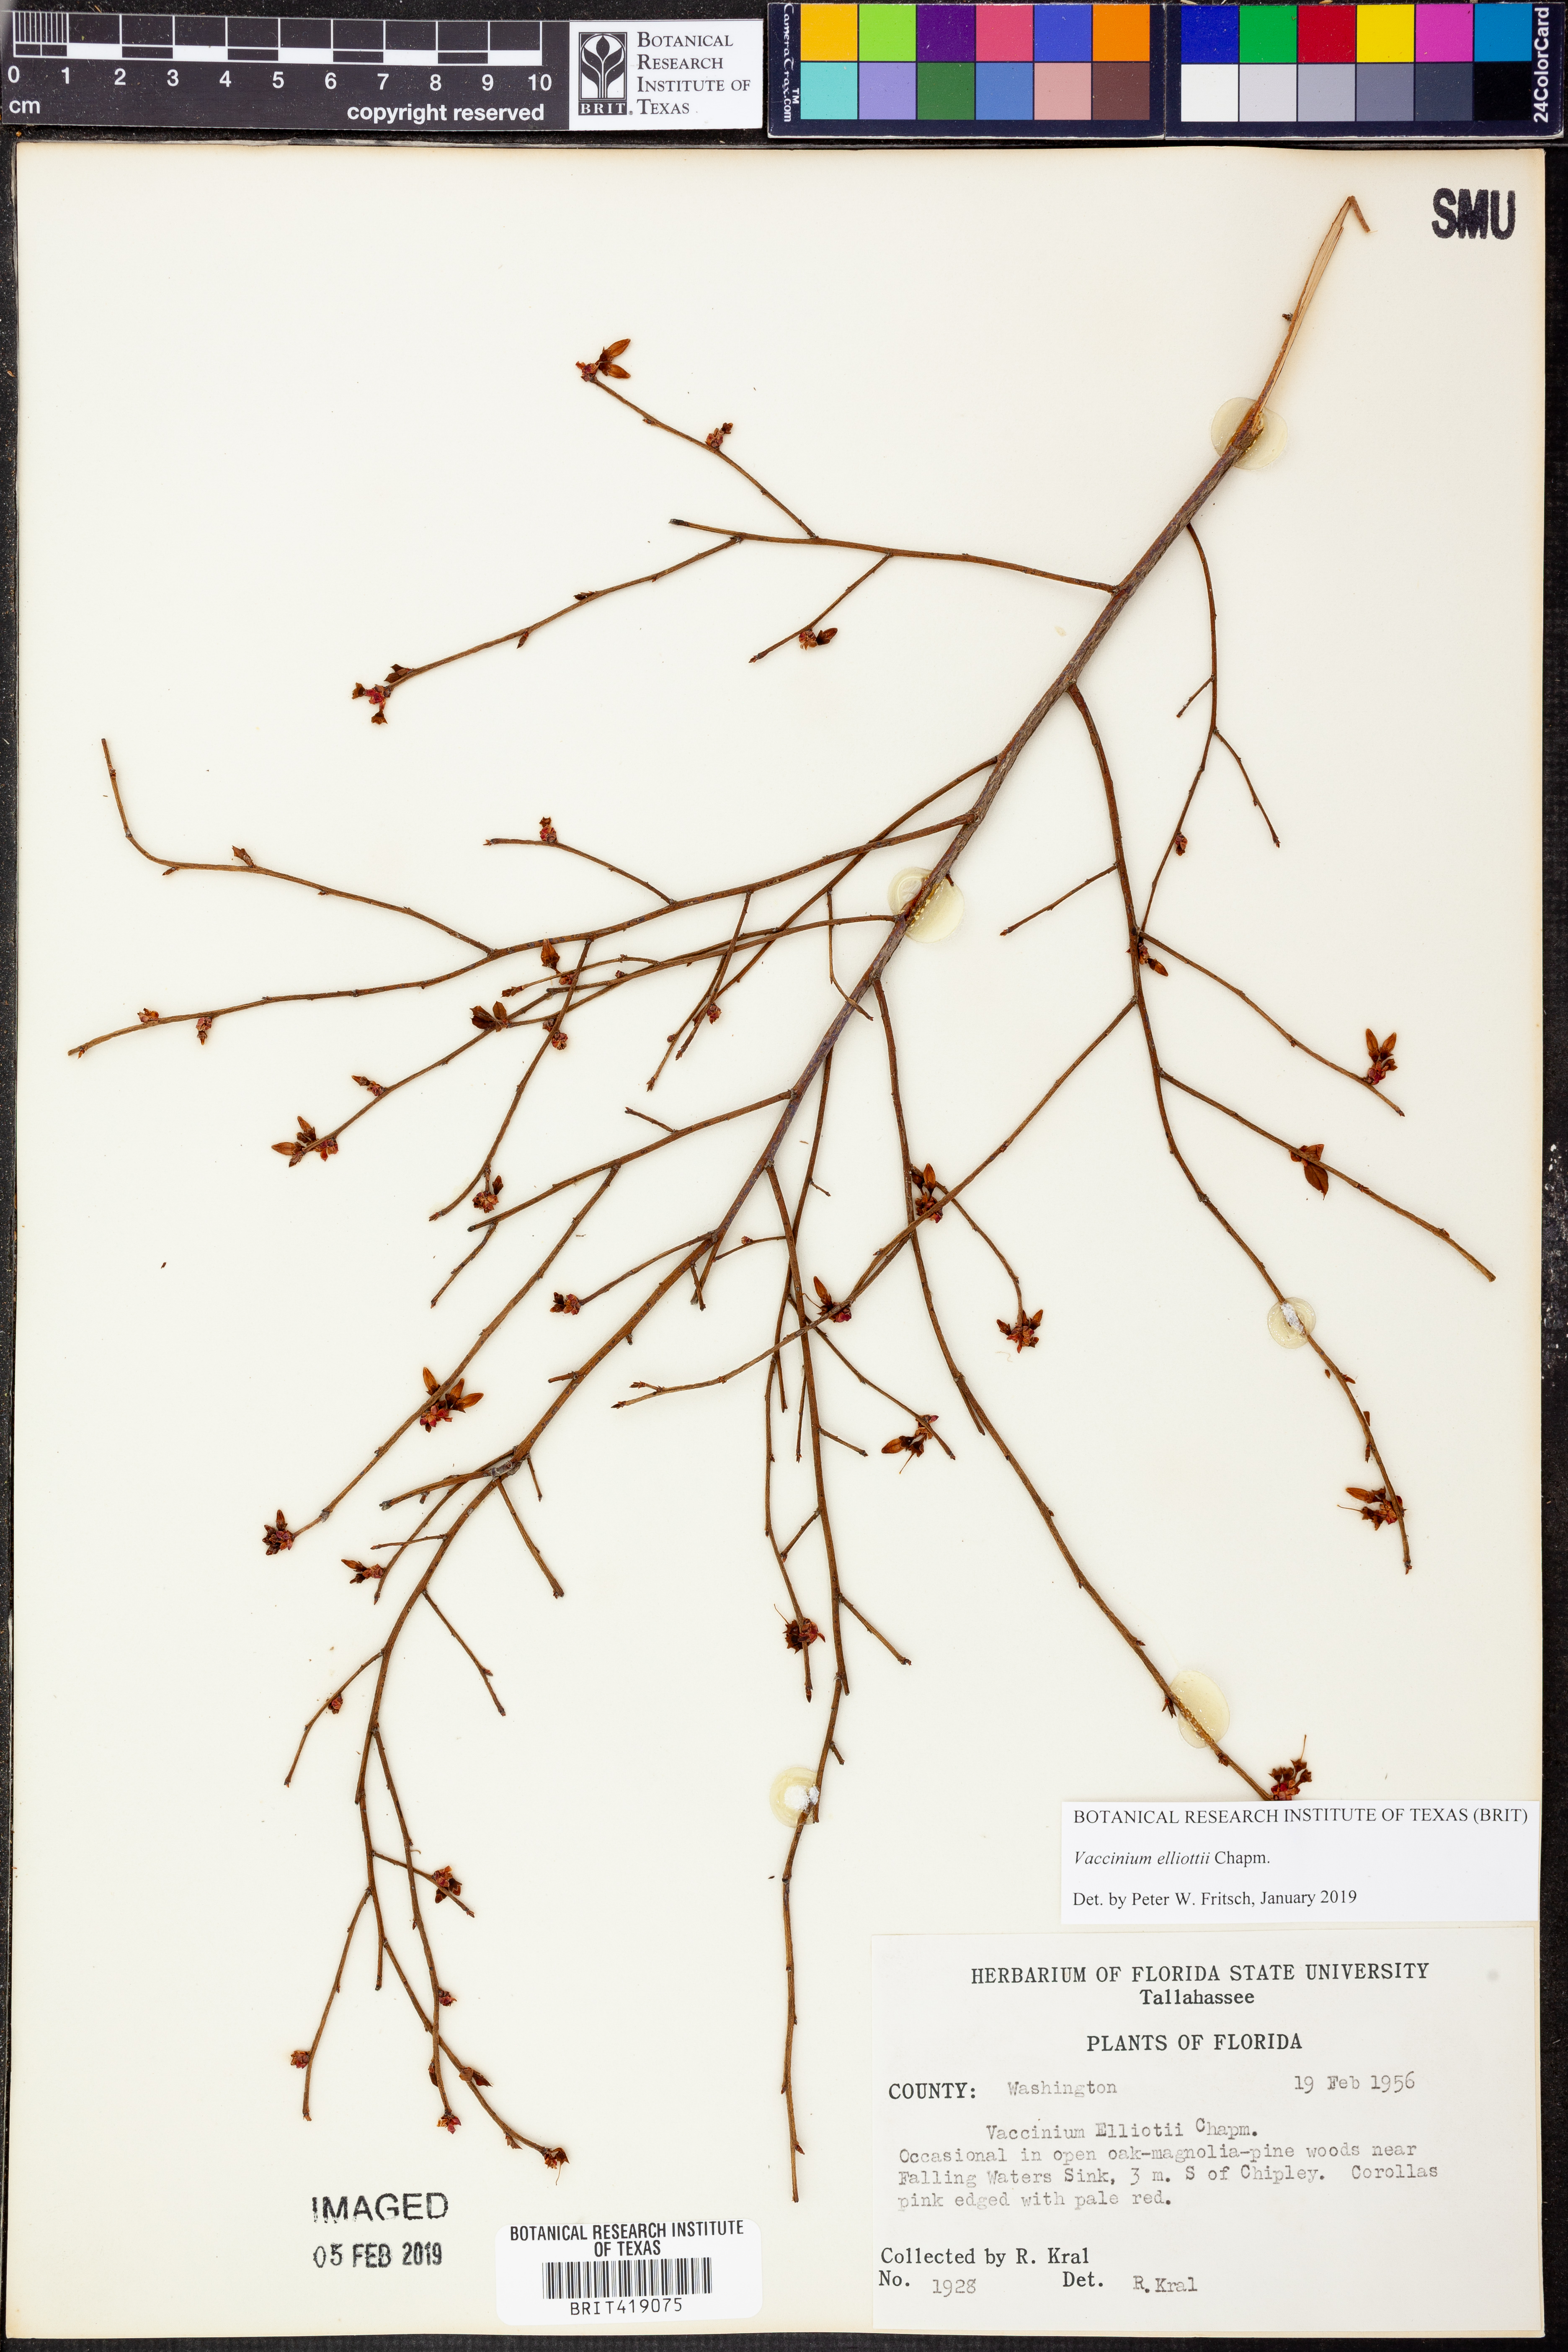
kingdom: Plantae
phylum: Tracheophyta
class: Magnoliopsida
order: Ericales
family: Ericaceae
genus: Vaccinium
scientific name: Vaccinium corymbosum
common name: Blueberry
